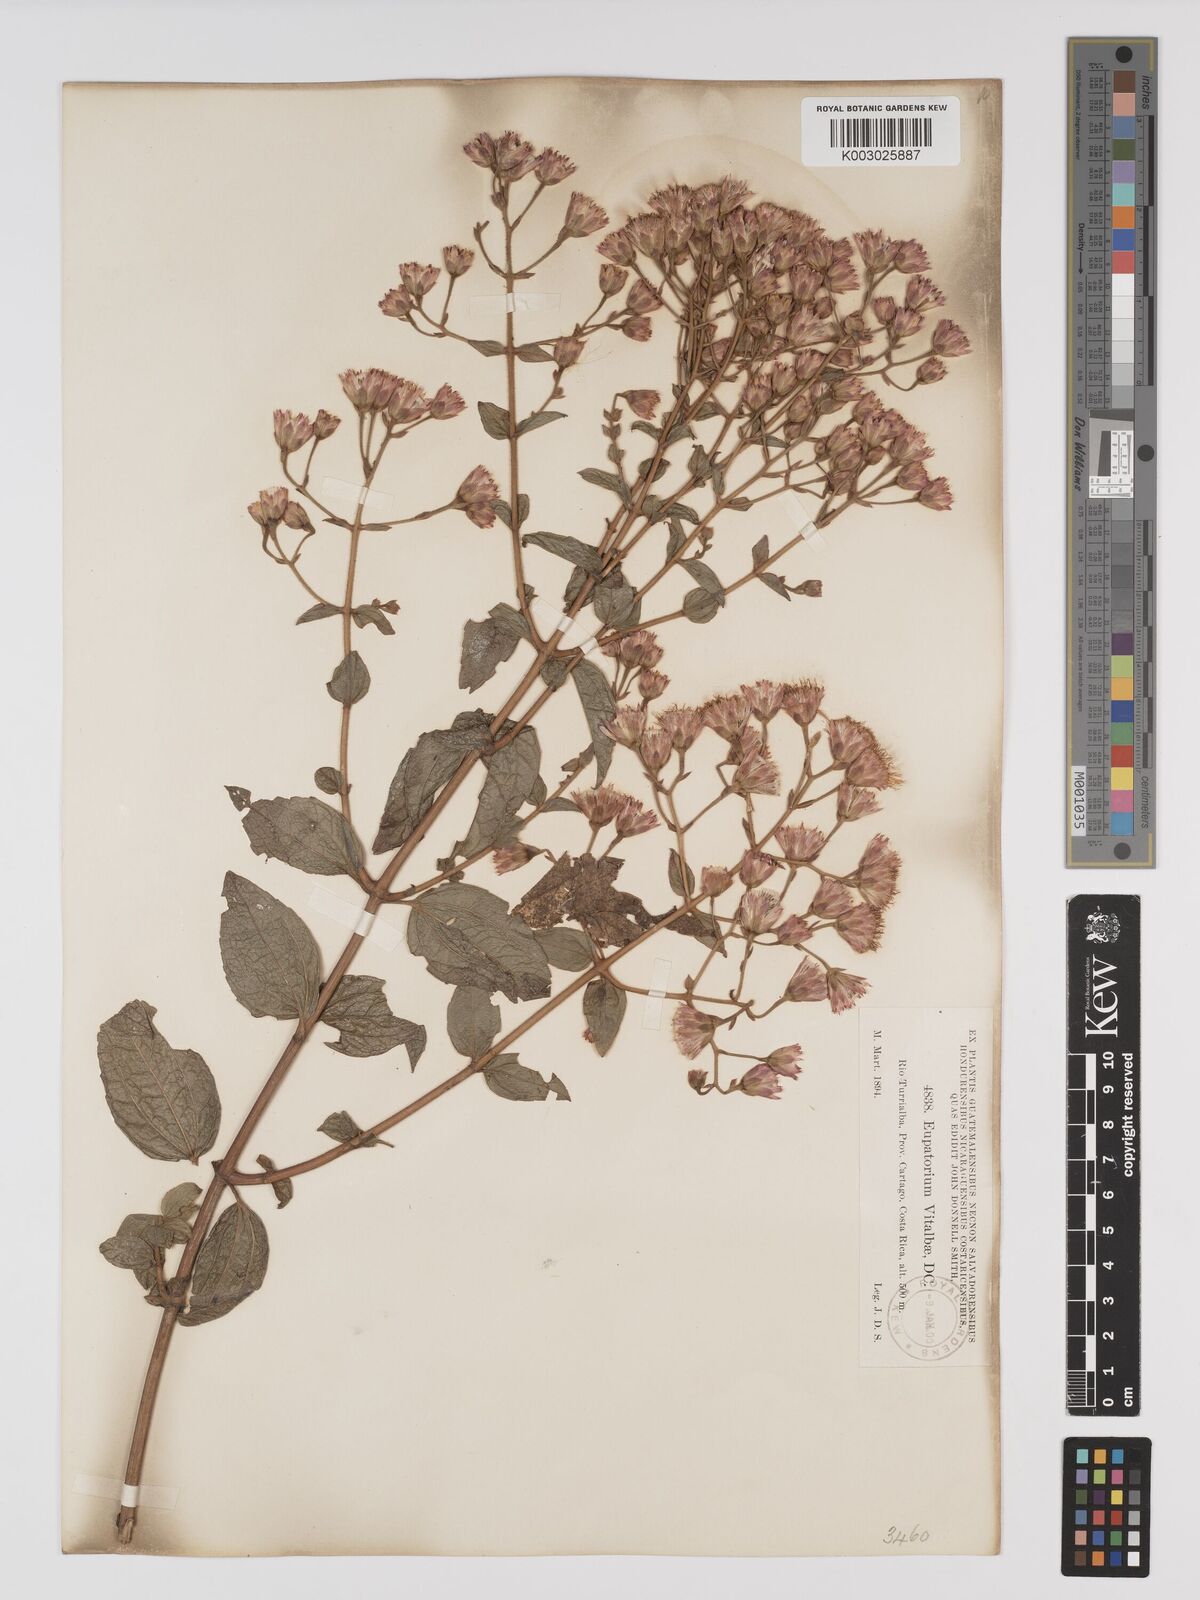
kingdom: Plantae
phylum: Tracheophyta
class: Magnoliopsida
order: Asterales
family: Asteraceae
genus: Heterocondylus
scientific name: Heterocondylus vitalbae
